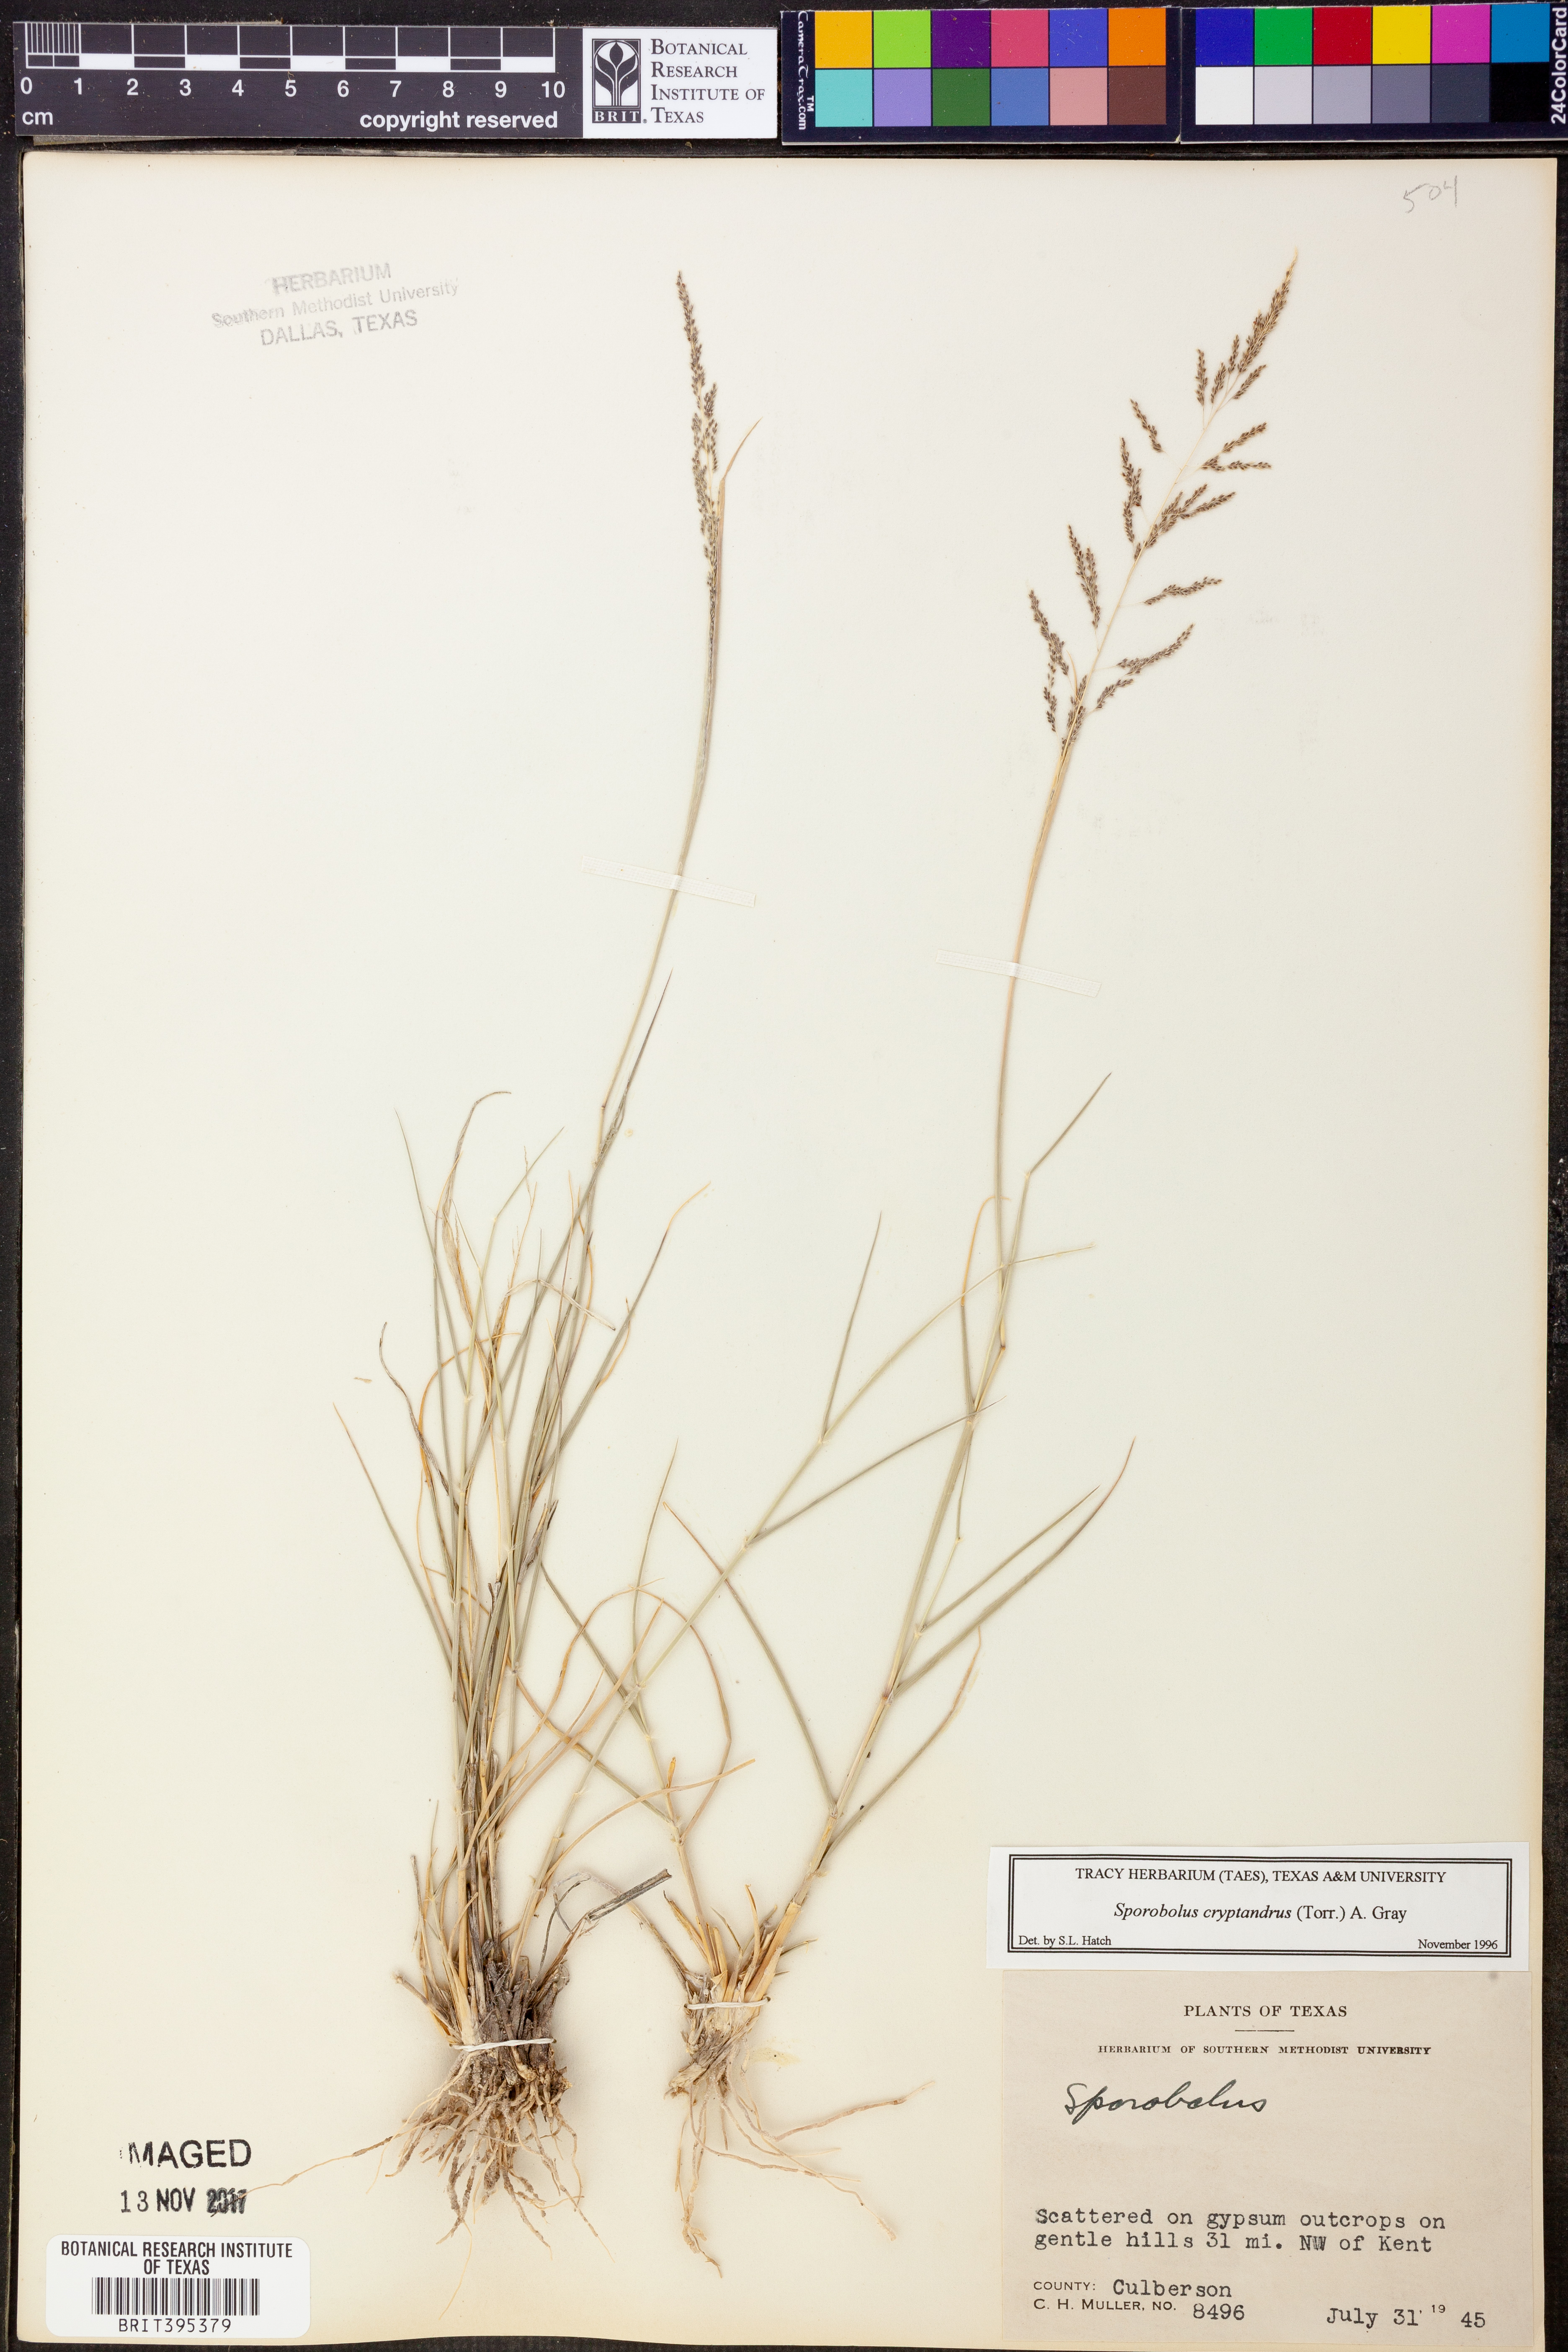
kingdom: Plantae
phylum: Tracheophyta
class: Liliopsida
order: Poales
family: Poaceae
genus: Sporobolus
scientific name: Sporobolus cryptandrus
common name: Sand dropseed
